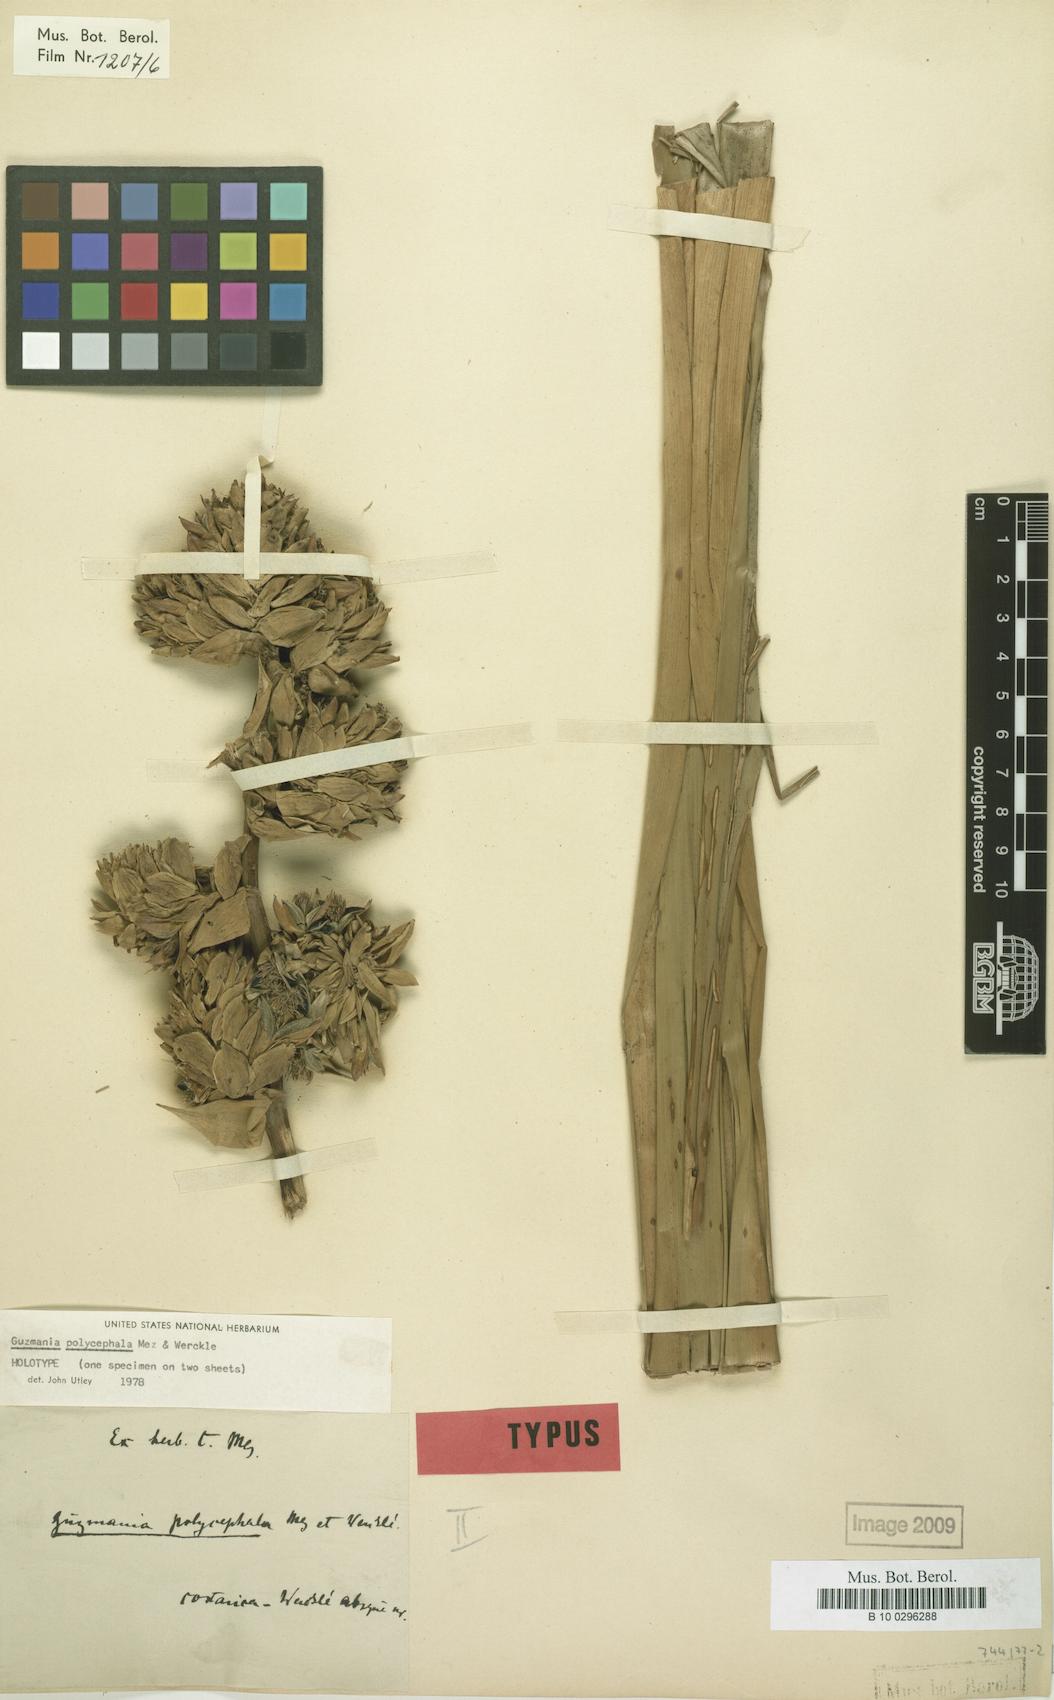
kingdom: Plantae
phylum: Tracheophyta
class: Liliopsida
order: Poales
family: Bromeliaceae
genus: Guzmania
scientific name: Guzmania polycephala
